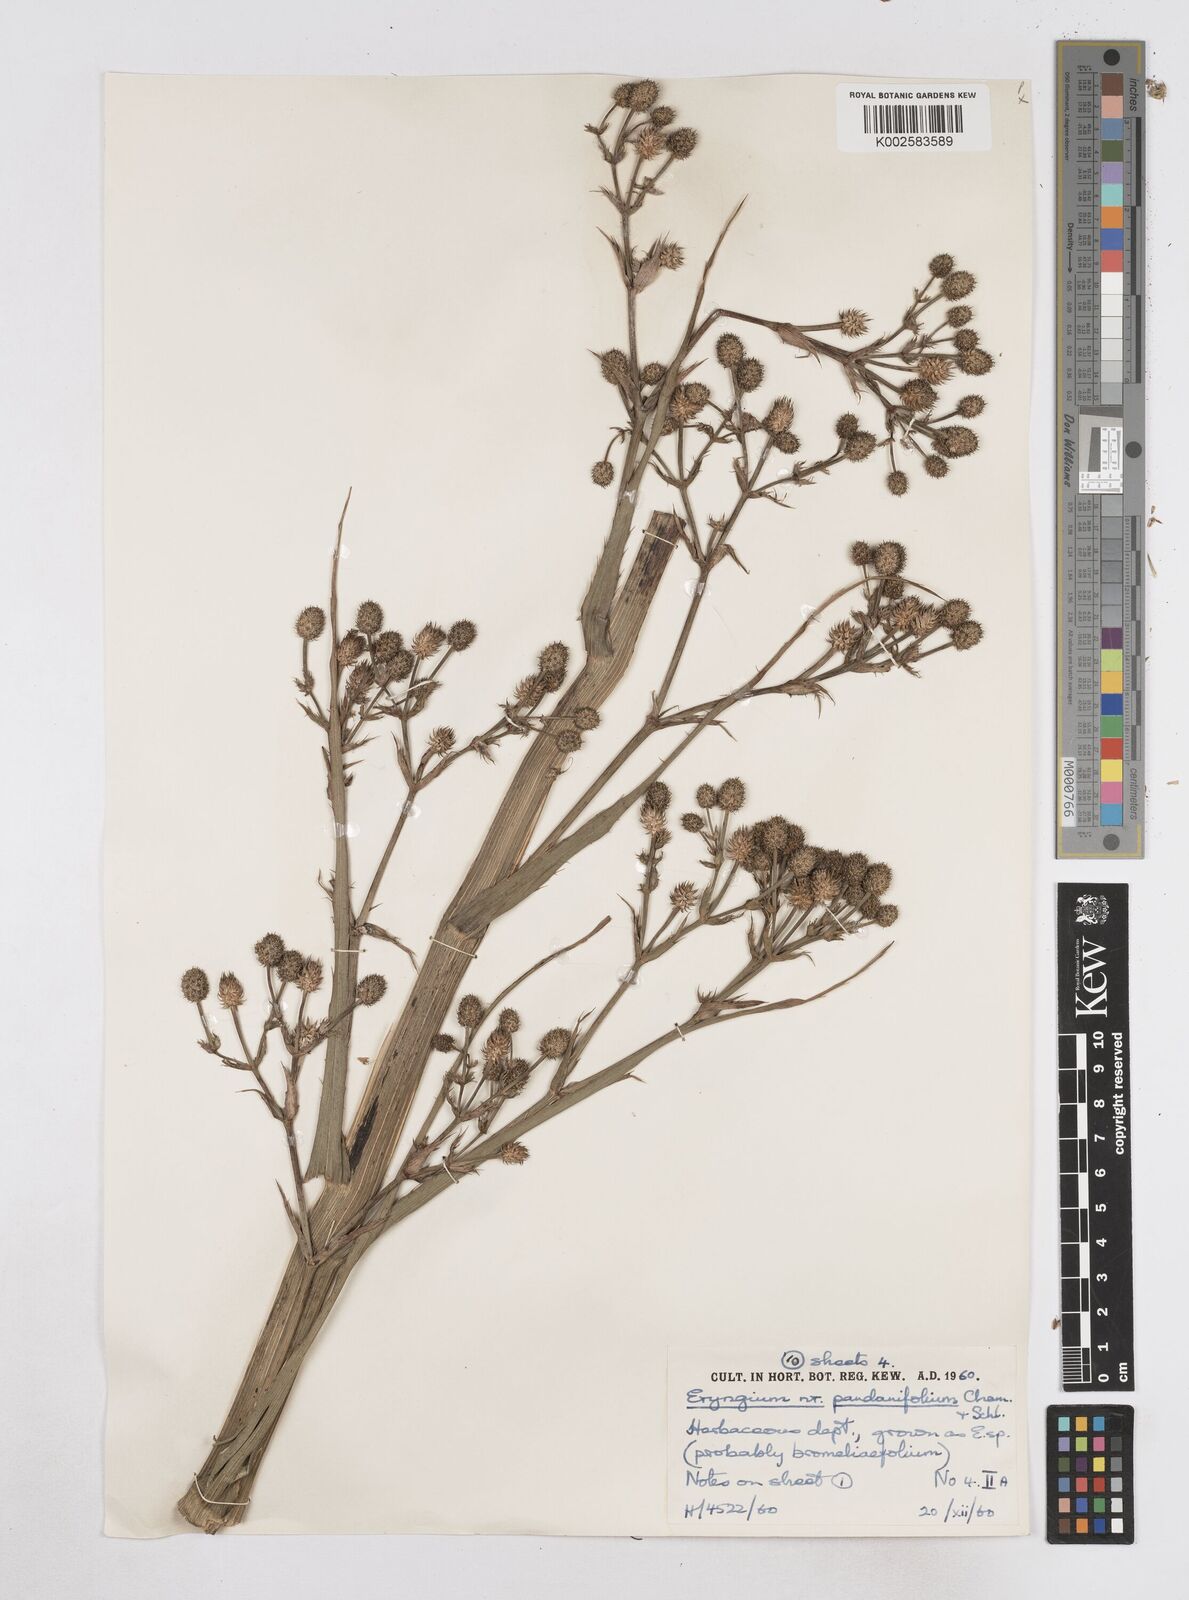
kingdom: Plantae
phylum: Tracheophyta
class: Magnoliopsida
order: Apiales
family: Apiaceae
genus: Eryngium
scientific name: Eryngium pandanifolium
